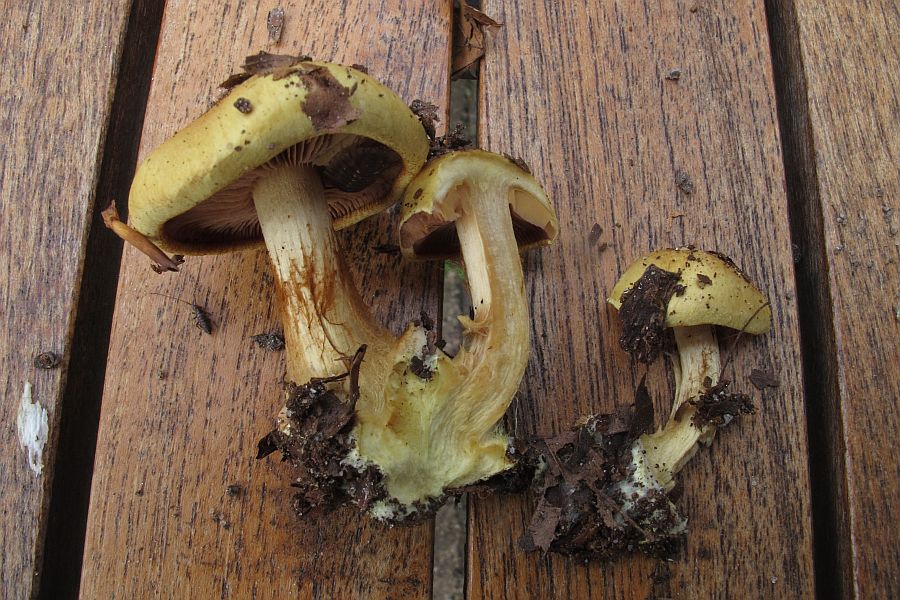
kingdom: Fungi
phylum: Basidiomycota
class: Agaricomycetes
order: Agaricales
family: Cortinariaceae
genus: Calonarius
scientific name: Calonarius fulvocitrinus
